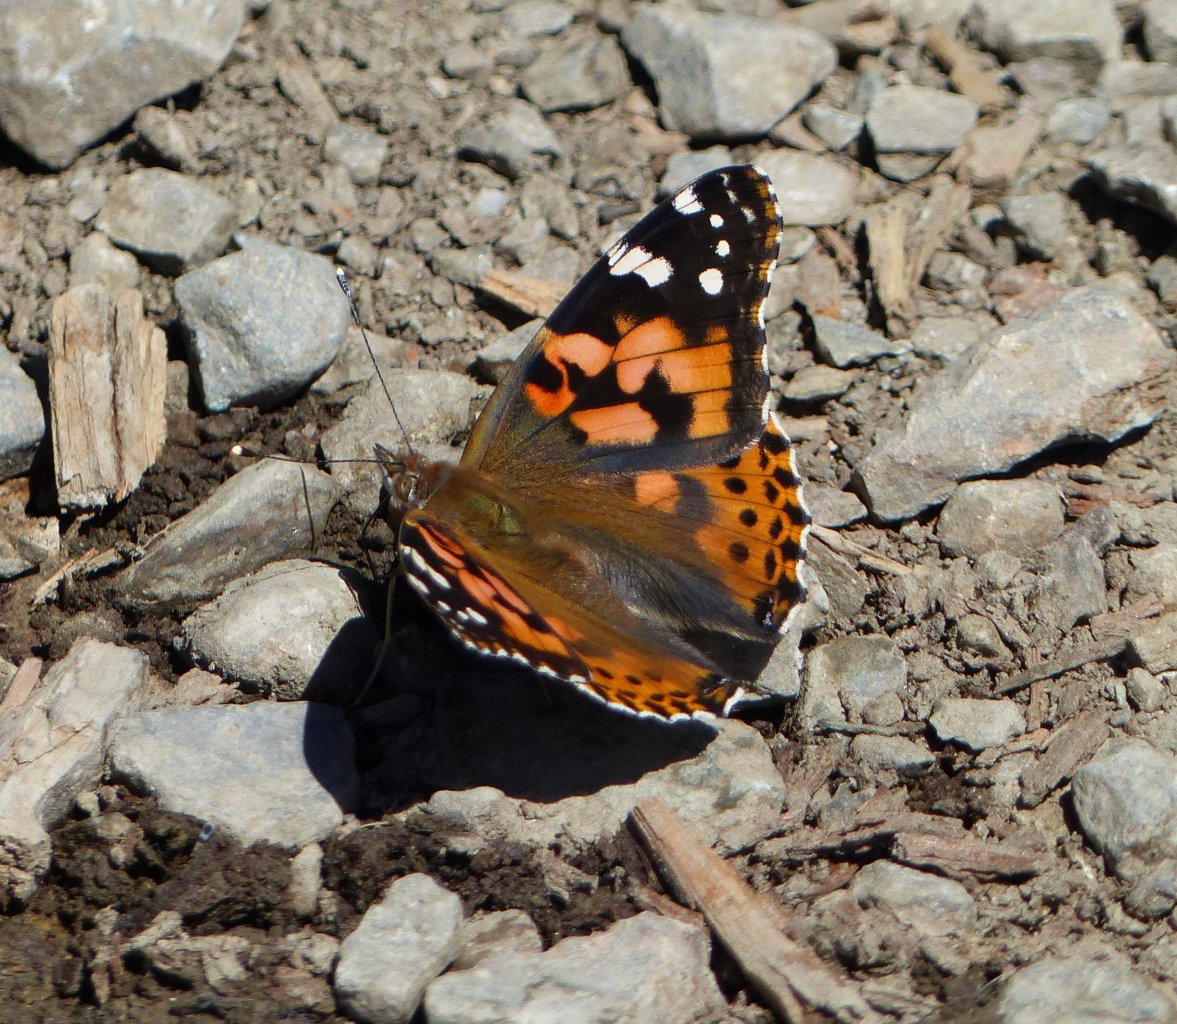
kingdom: Animalia
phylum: Arthropoda
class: Insecta
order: Lepidoptera
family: Nymphalidae
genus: Vanessa
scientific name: Vanessa cardui
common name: Painted Lady
